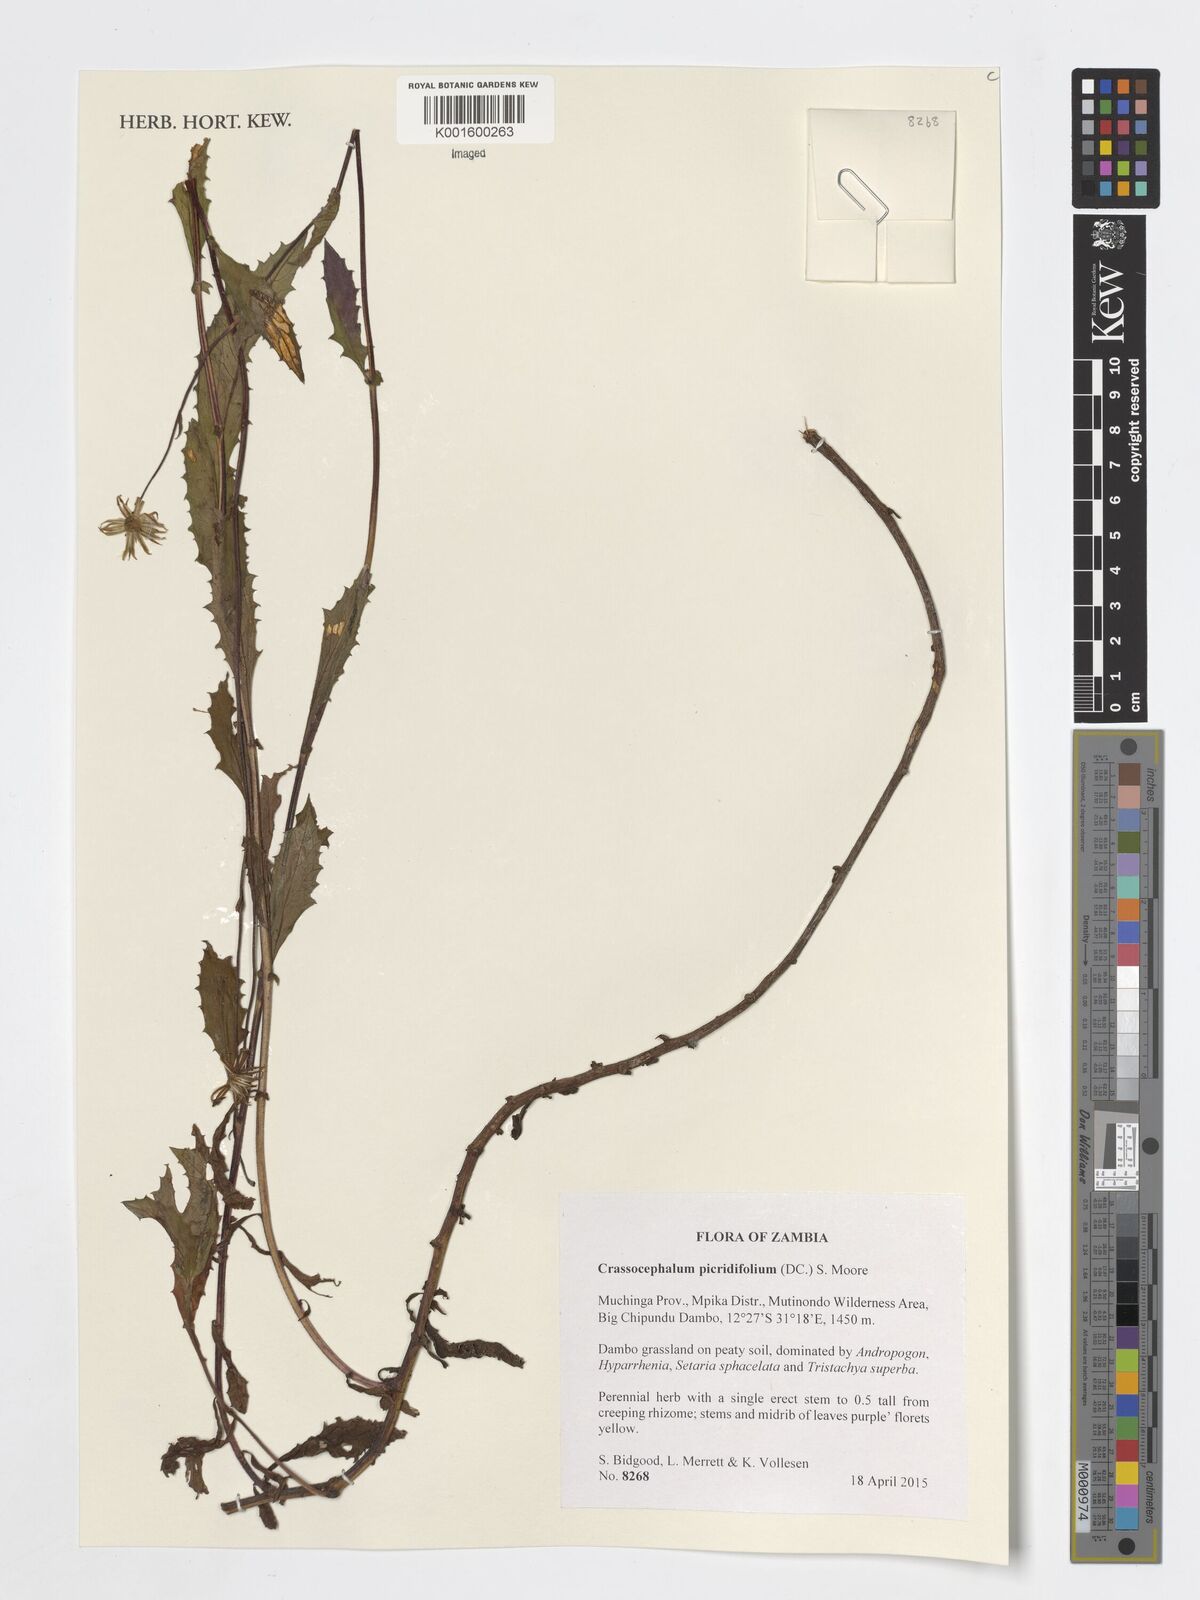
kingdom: Plantae
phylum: Tracheophyta
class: Magnoliopsida
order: Asterales
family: Asteraceae
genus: Crassocephalum
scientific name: Crassocephalum picridifolium
